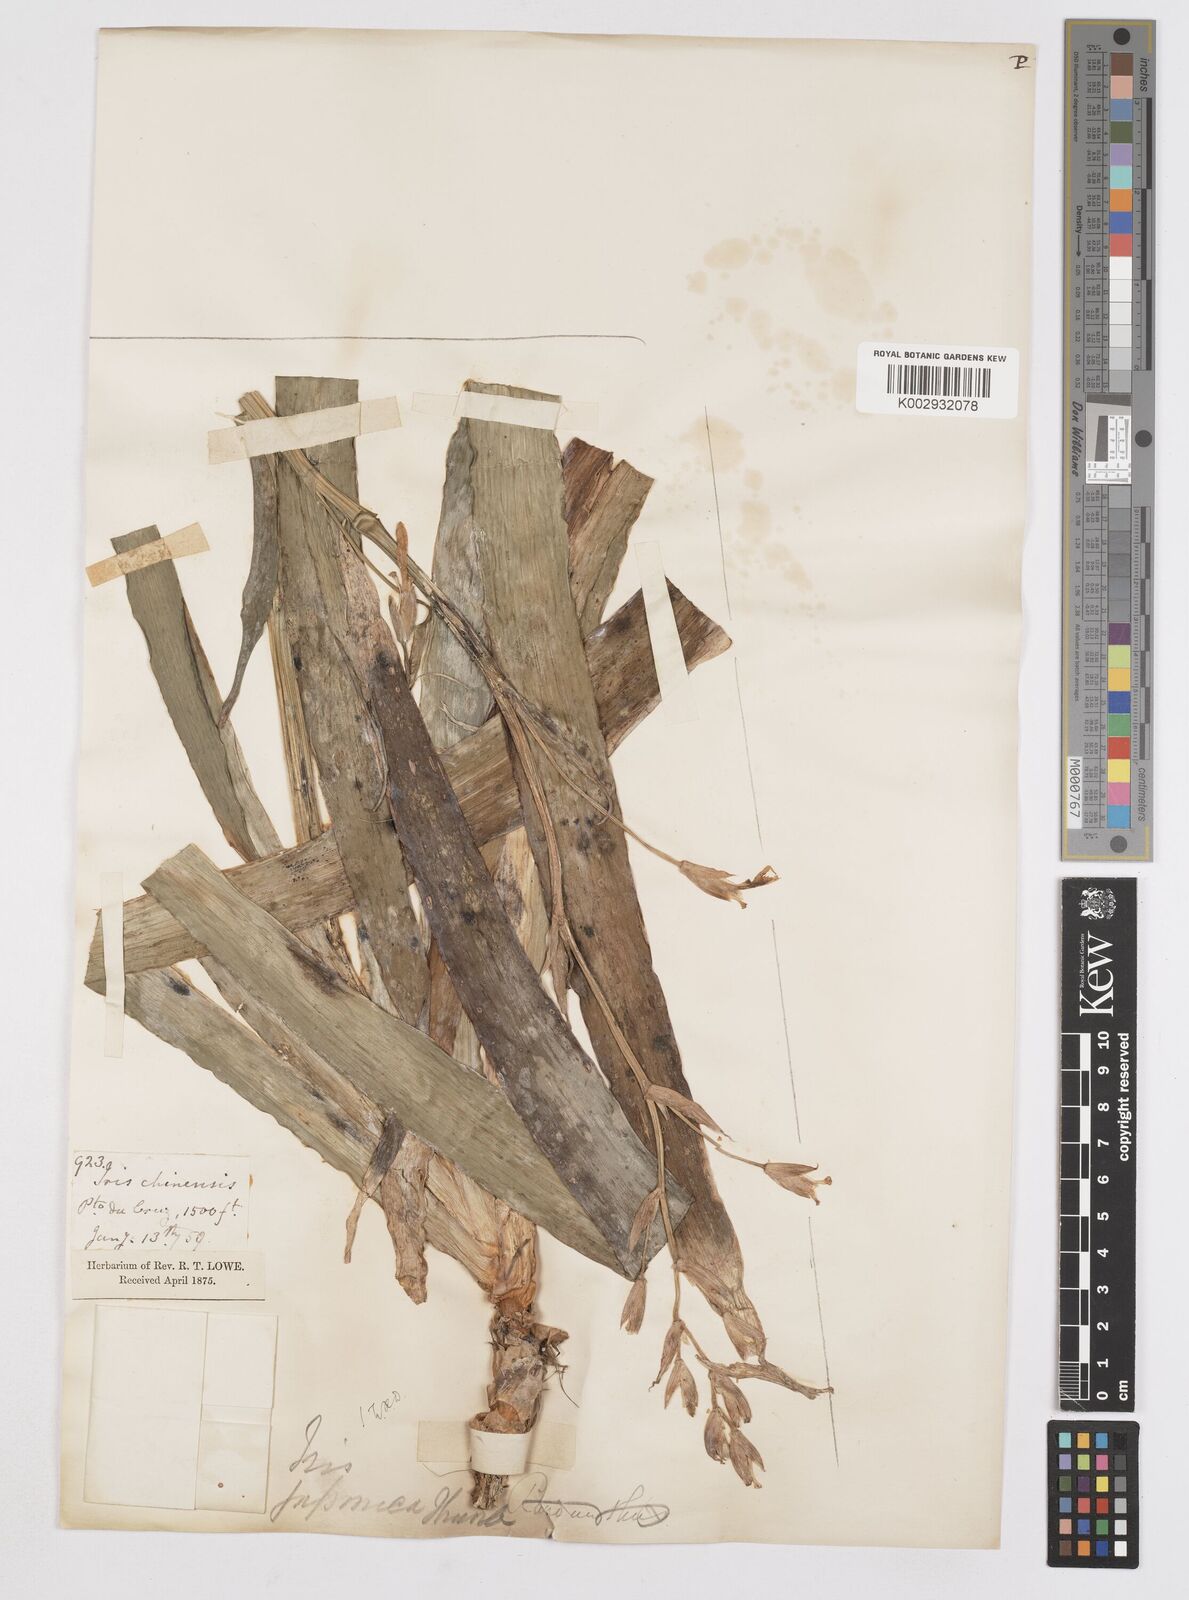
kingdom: Plantae
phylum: Tracheophyta
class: Liliopsida
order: Asparagales
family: Iridaceae
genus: Iris
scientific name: Iris japonica
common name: Butterfly-flower
